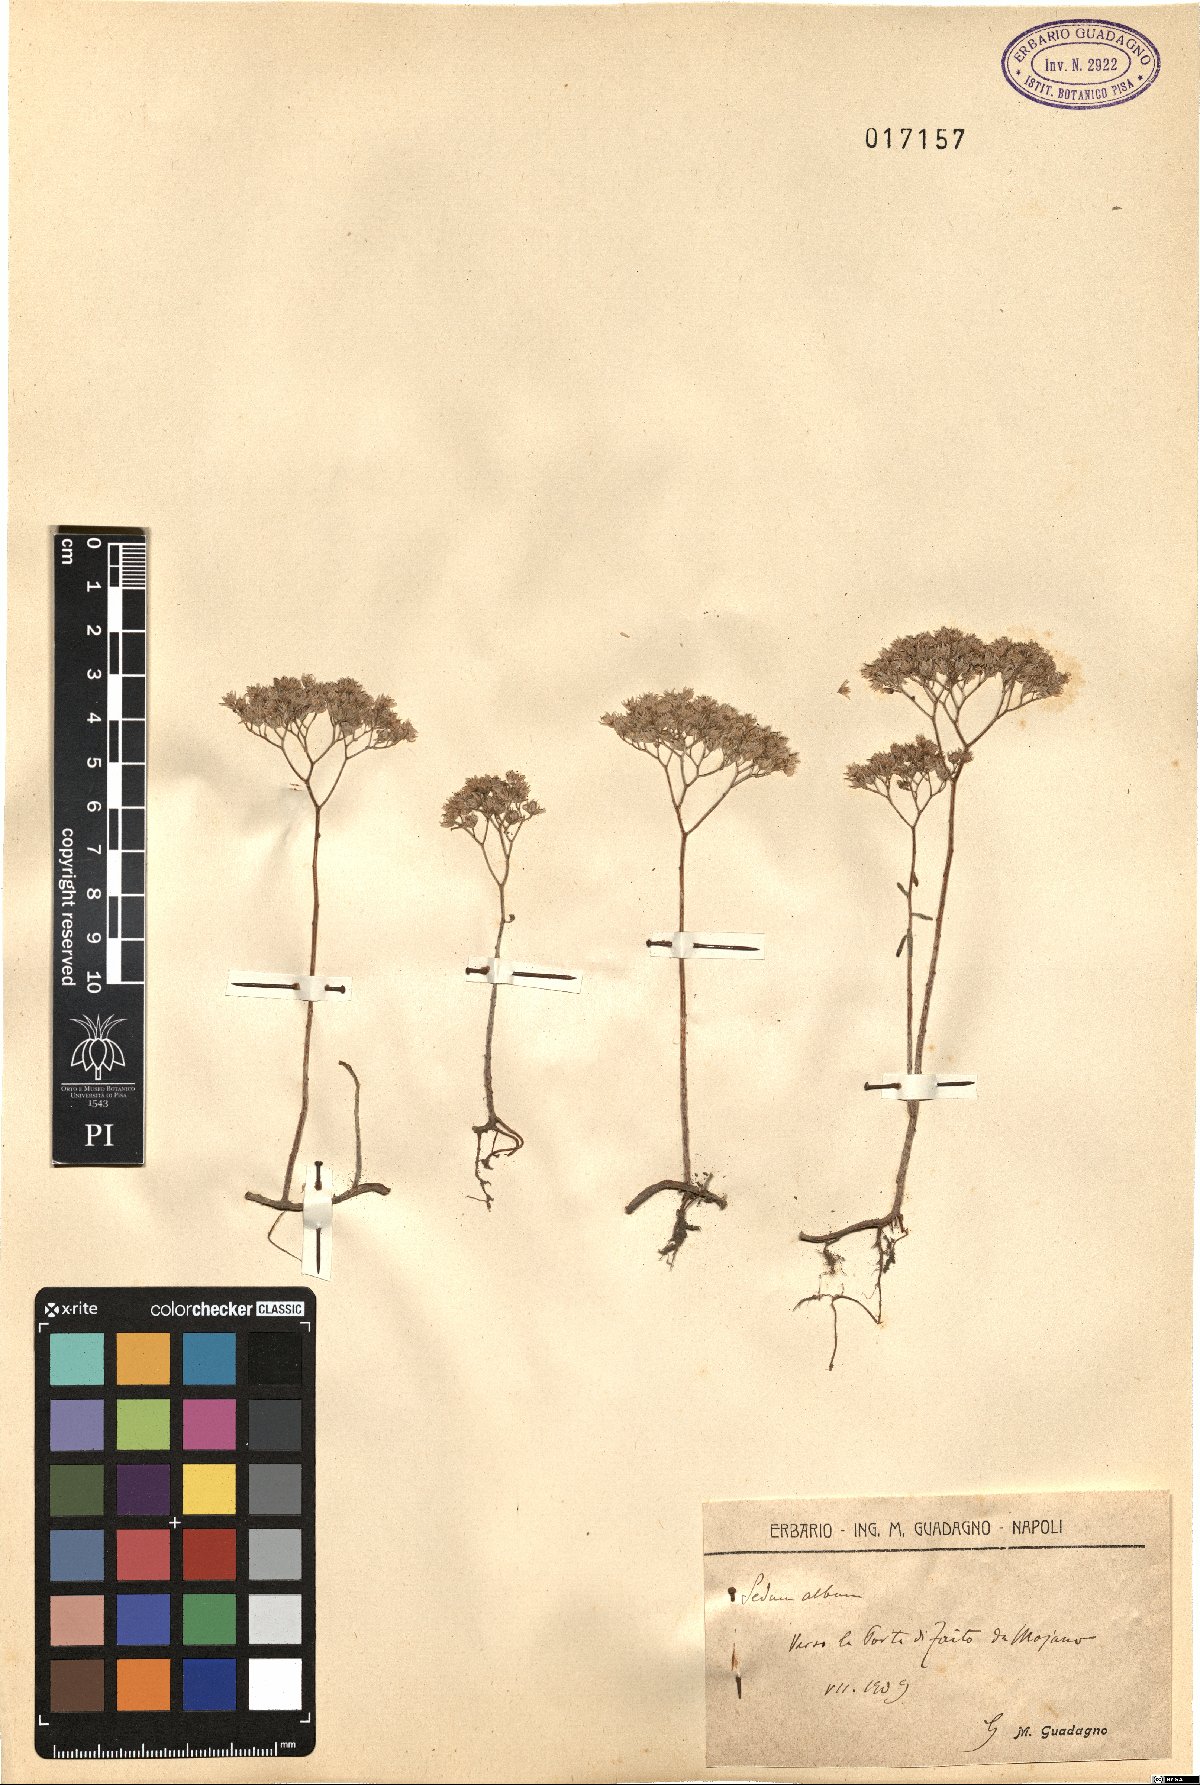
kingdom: Plantae
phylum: Tracheophyta
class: Magnoliopsida
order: Saxifragales
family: Crassulaceae
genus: Sedum
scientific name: Sedum album
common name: White stonecrop
